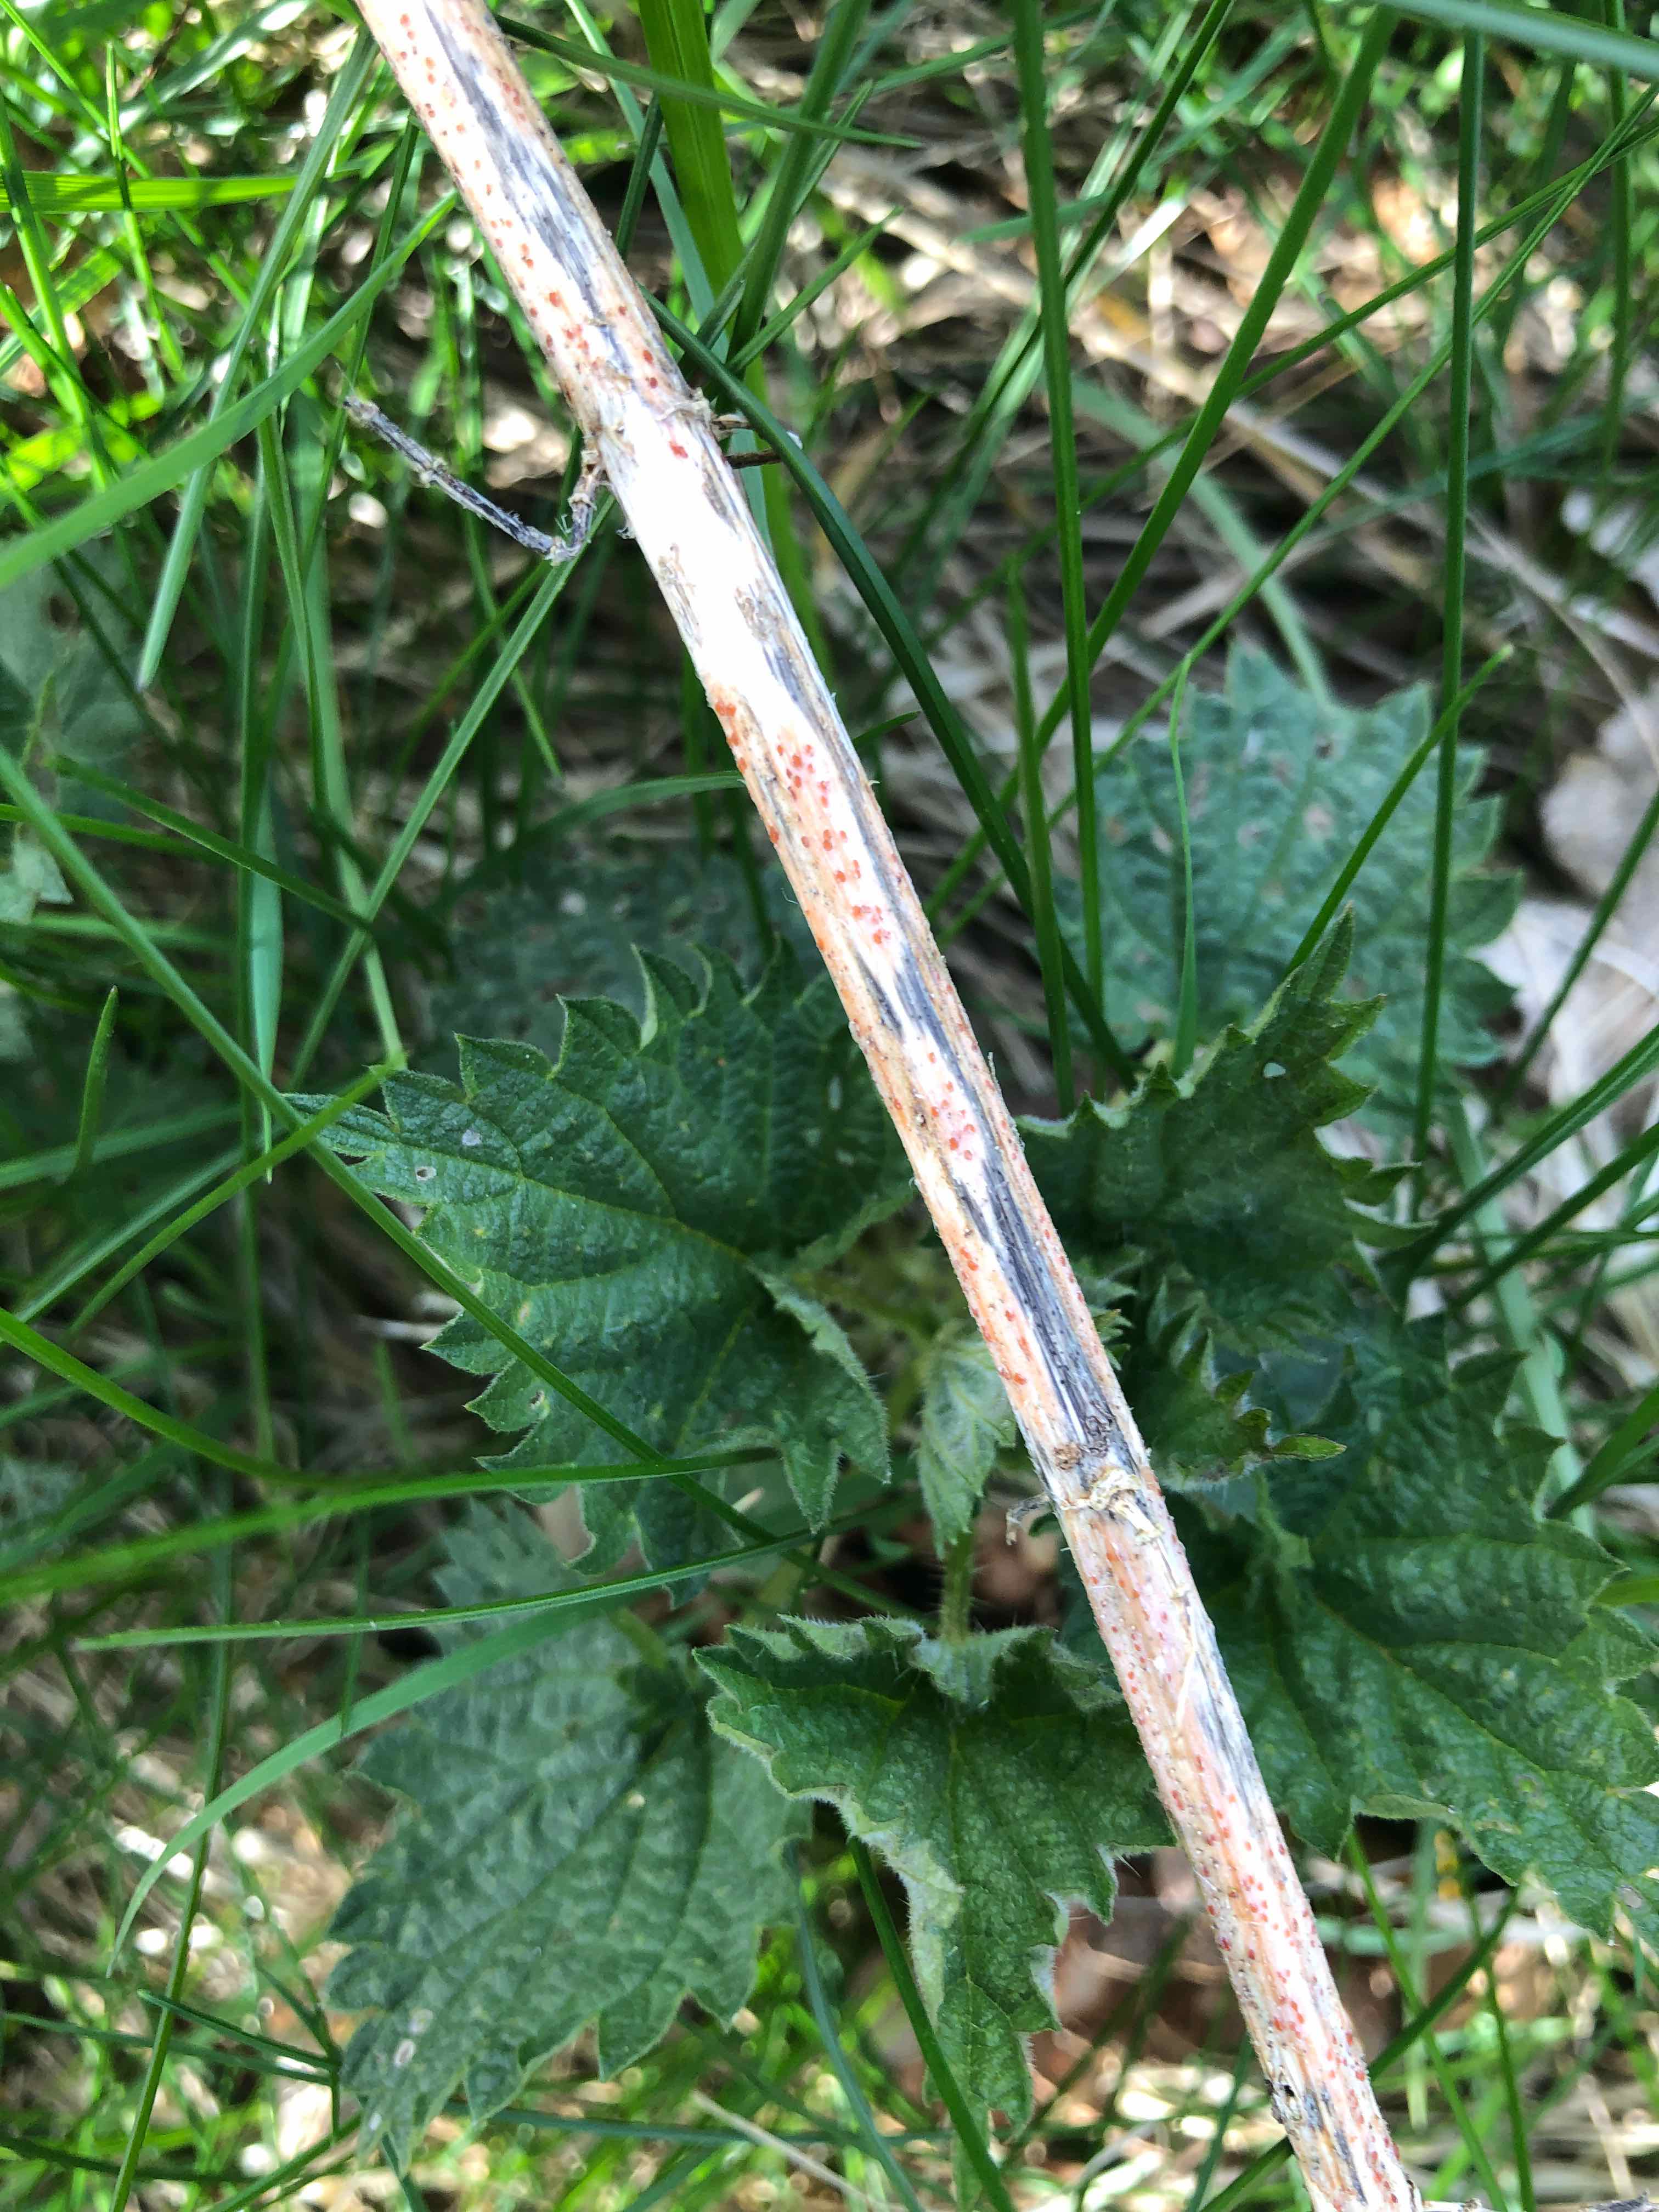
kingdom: Fungi
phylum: Ascomycota
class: Leotiomycetes
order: Helotiales
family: Calloriaceae
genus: Calloria
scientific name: Calloria urticae
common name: nælde-orangeskive
